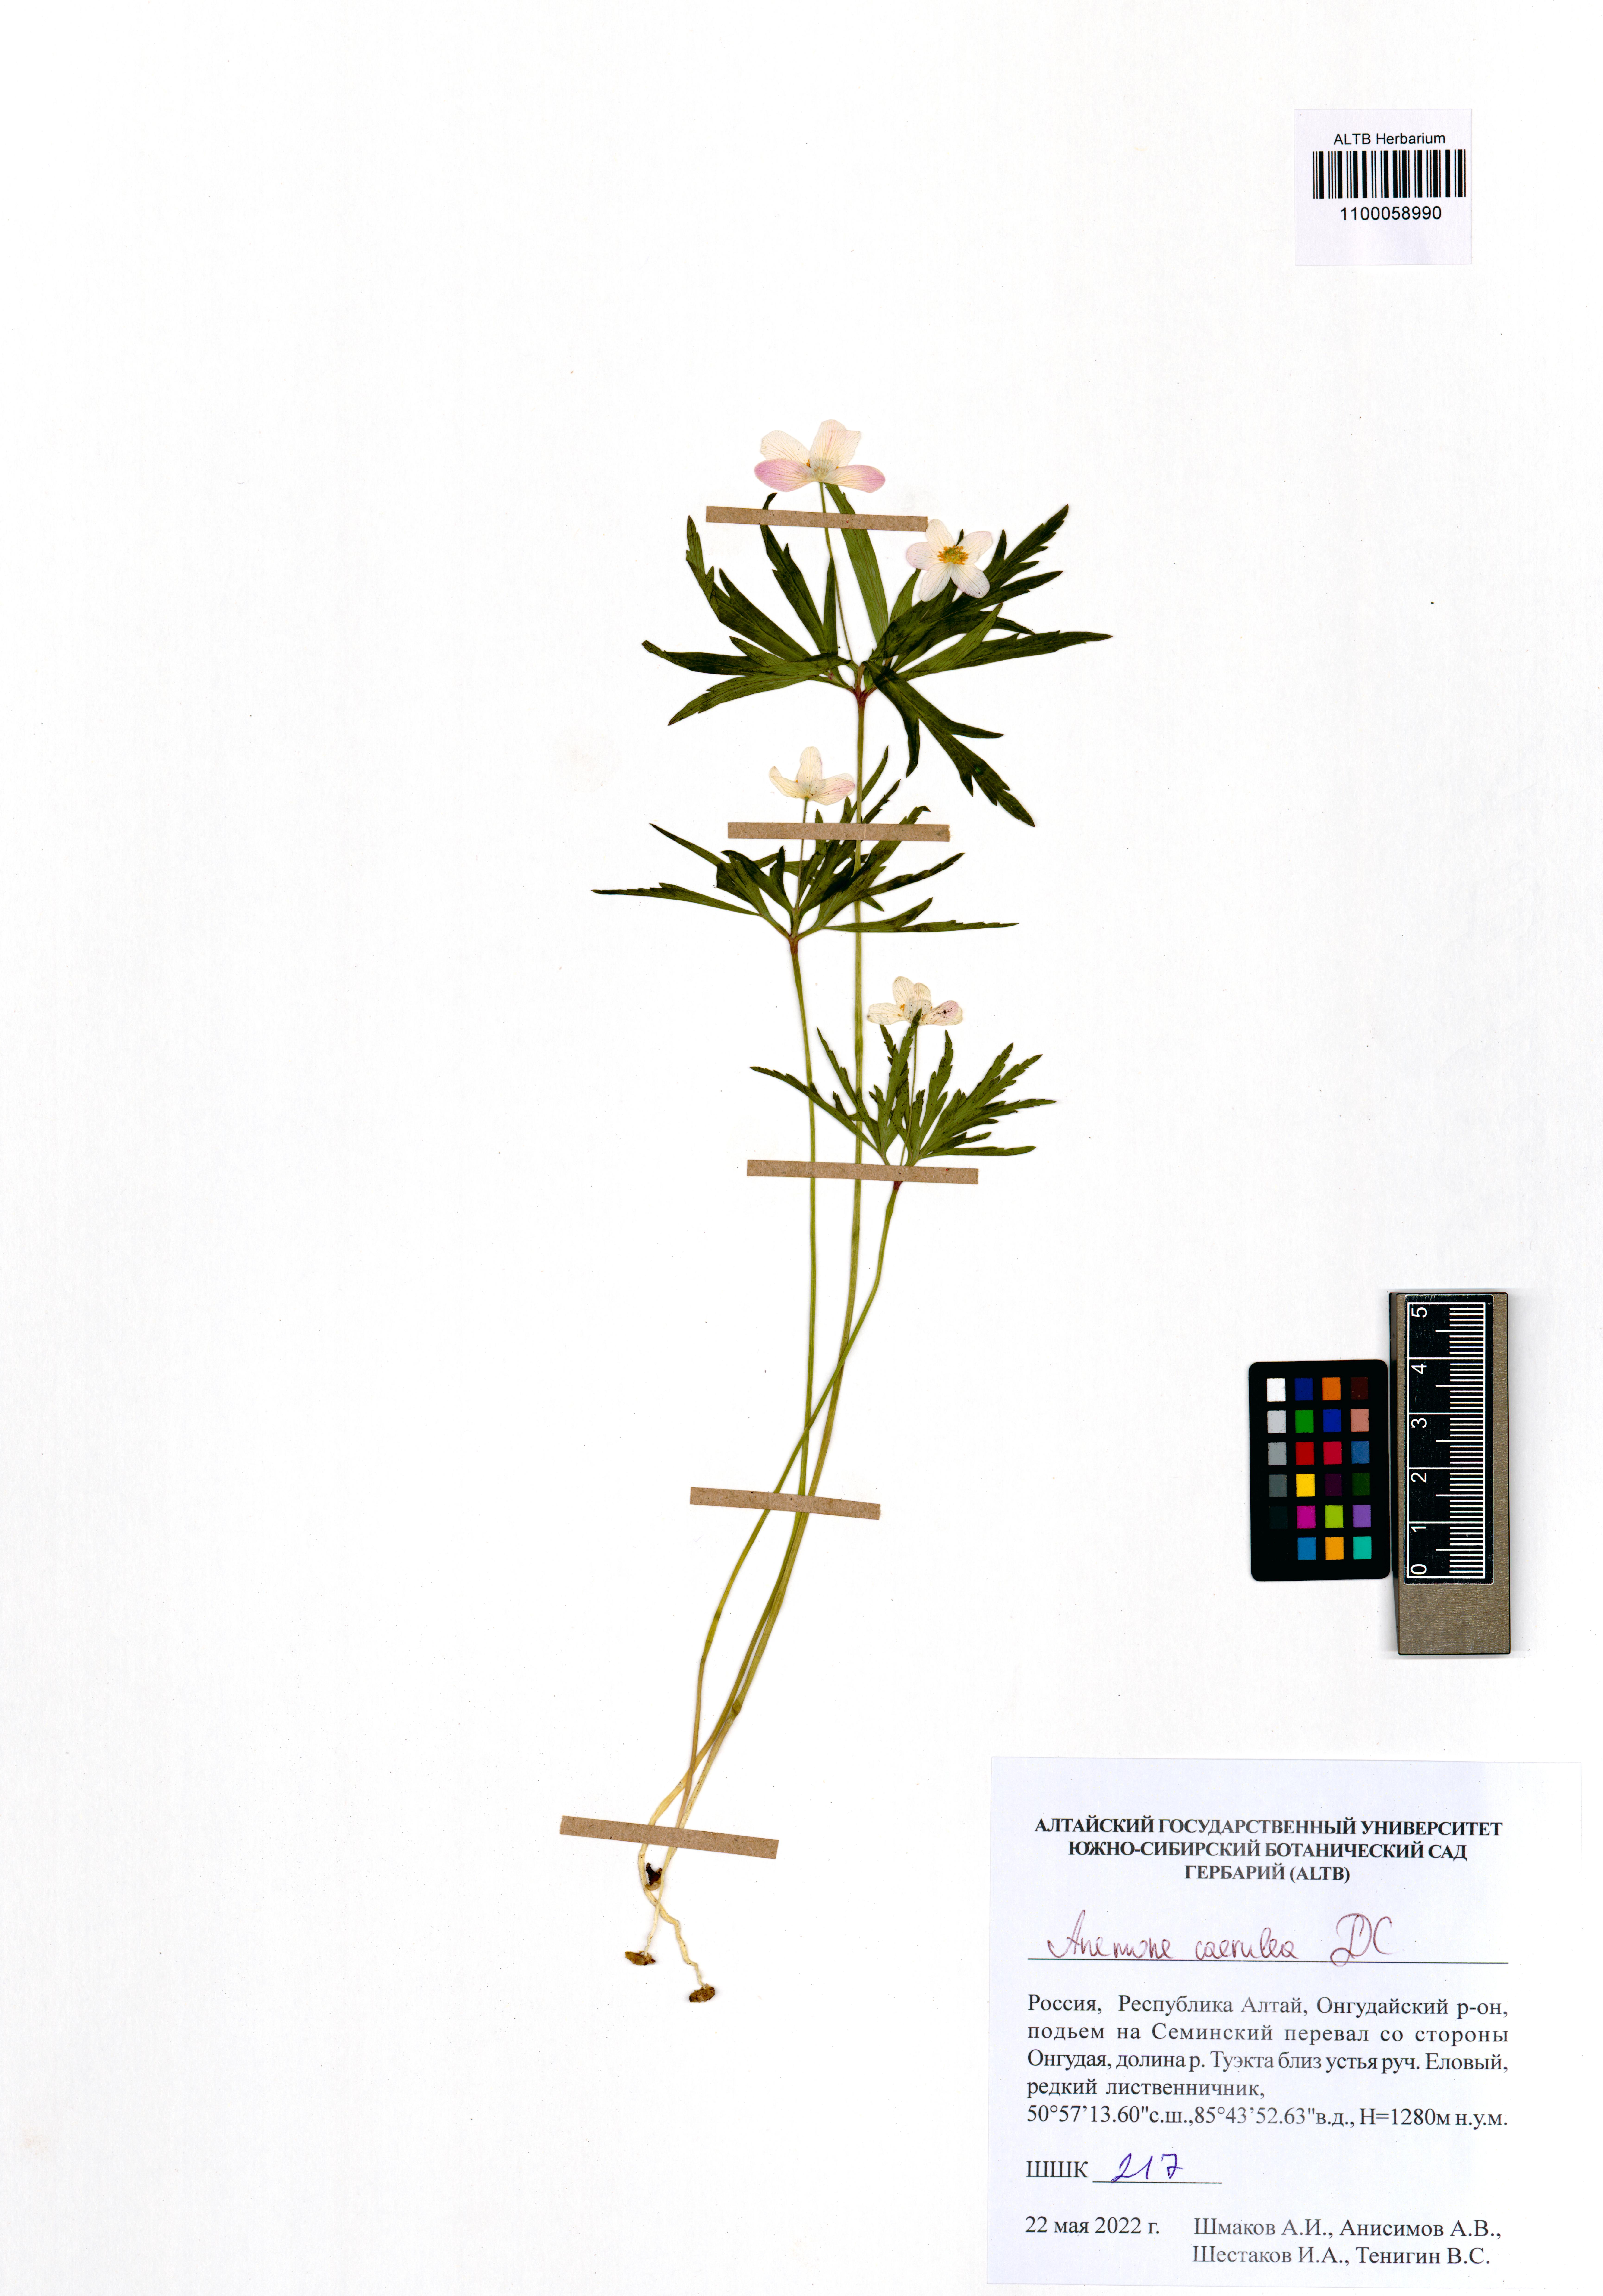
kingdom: Plantae
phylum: Tracheophyta
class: Magnoliopsida
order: Ranunculales
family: Ranunculaceae
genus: Anemone
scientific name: Anemone caerulea
